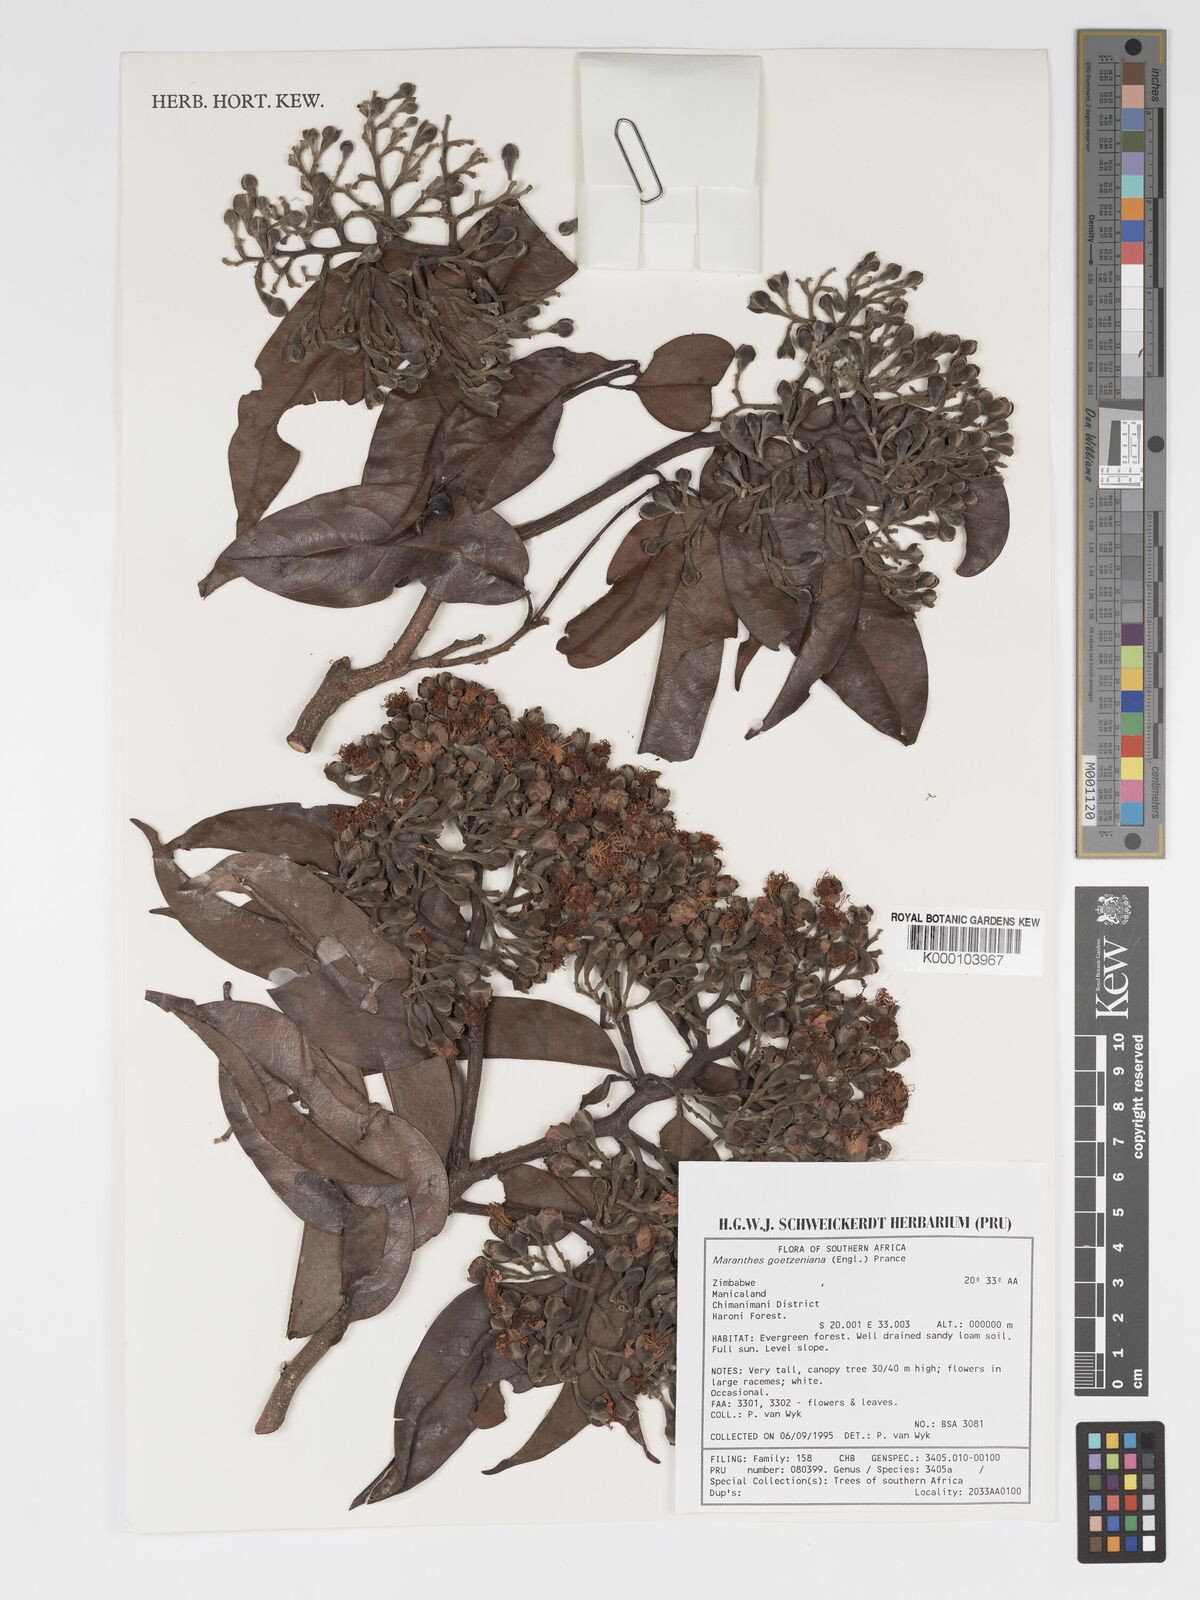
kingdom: Plantae
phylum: Tracheophyta
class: Magnoliopsida
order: Malpighiales
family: Chrysobalanaceae
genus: Maranthes
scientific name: Maranthes goetzeniana
